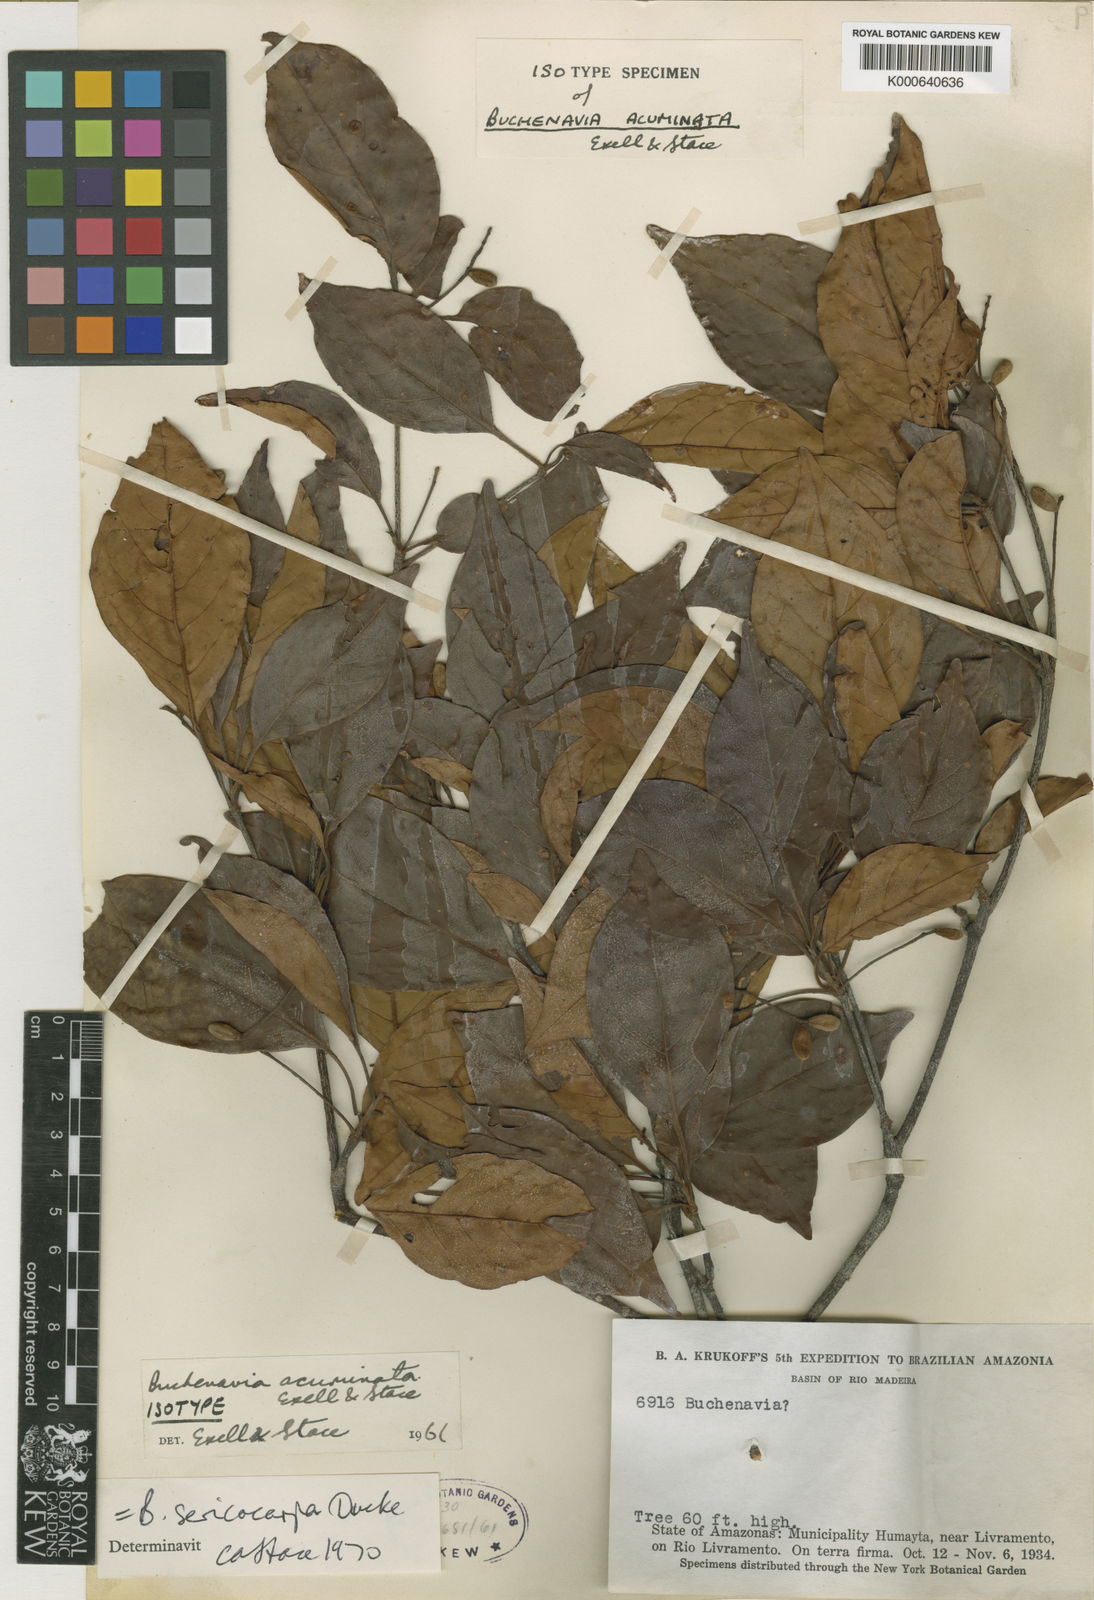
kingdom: Plantae
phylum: Tracheophyta
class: Magnoliopsida
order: Myrtales
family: Combretaceae
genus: Terminalia
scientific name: Terminalia
